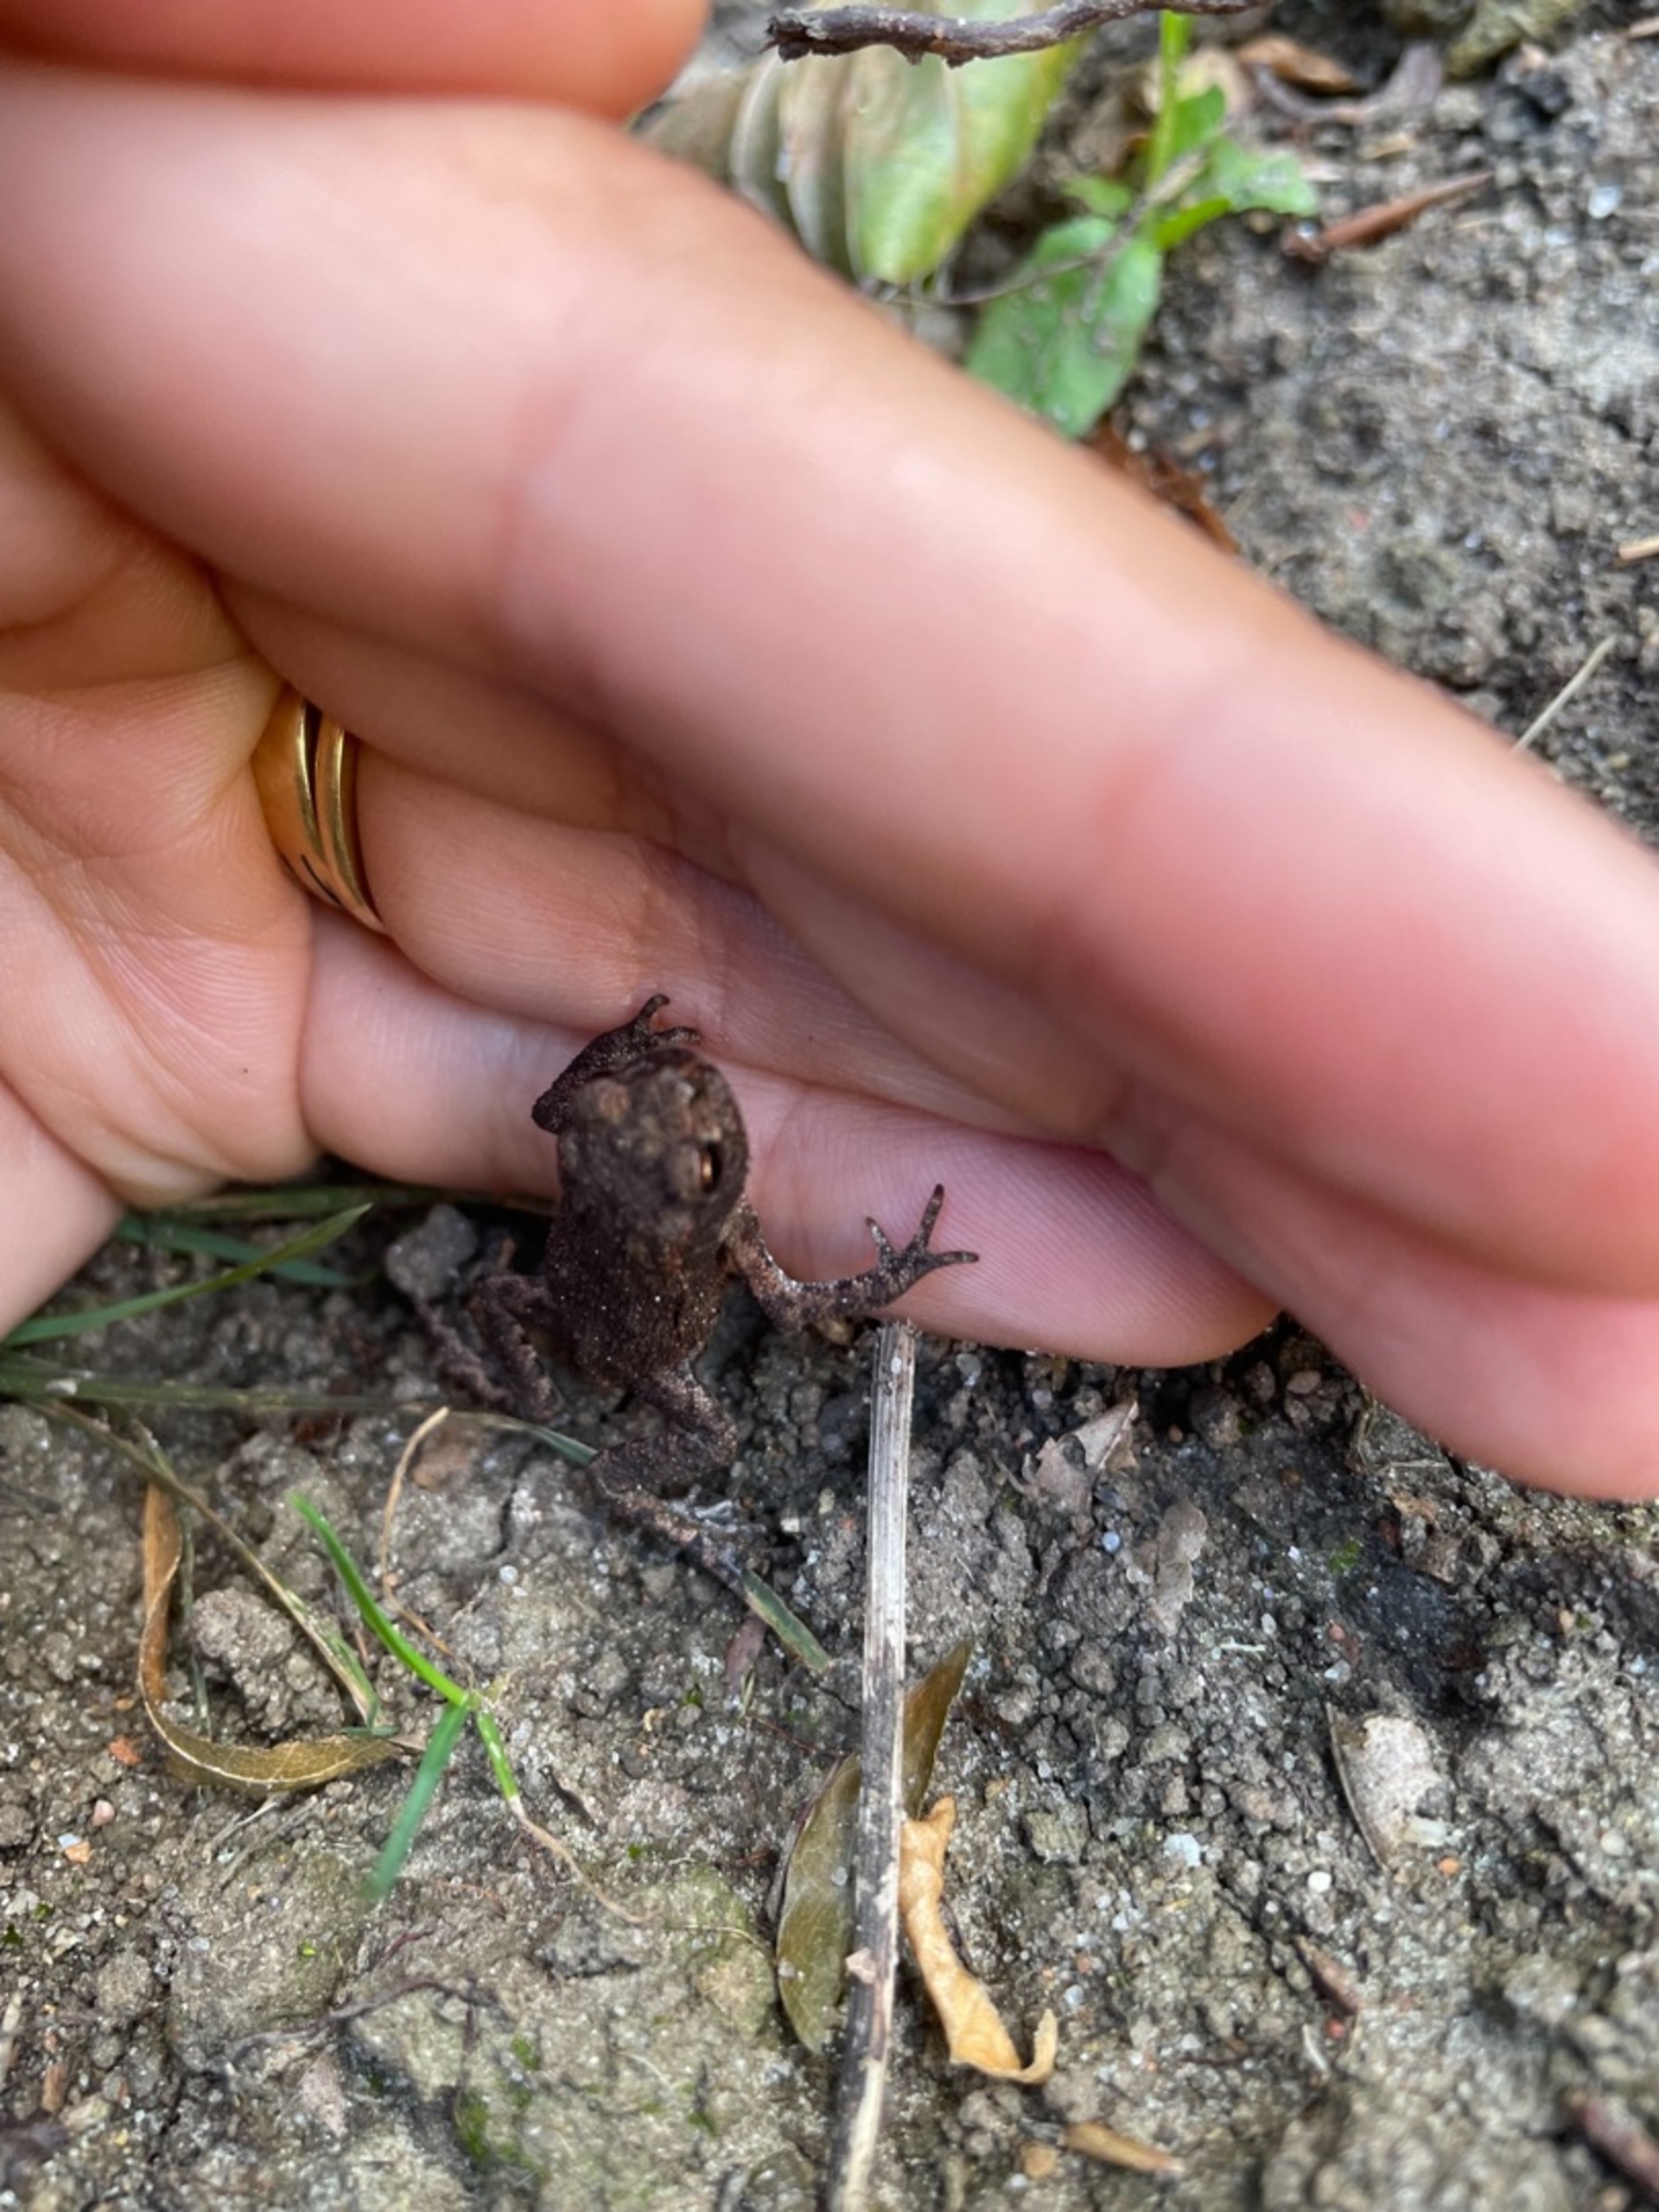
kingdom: Animalia
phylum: Chordata
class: Amphibia
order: Anura
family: Bufonidae
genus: Bufo
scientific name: Bufo bufo
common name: Skrubtudse
